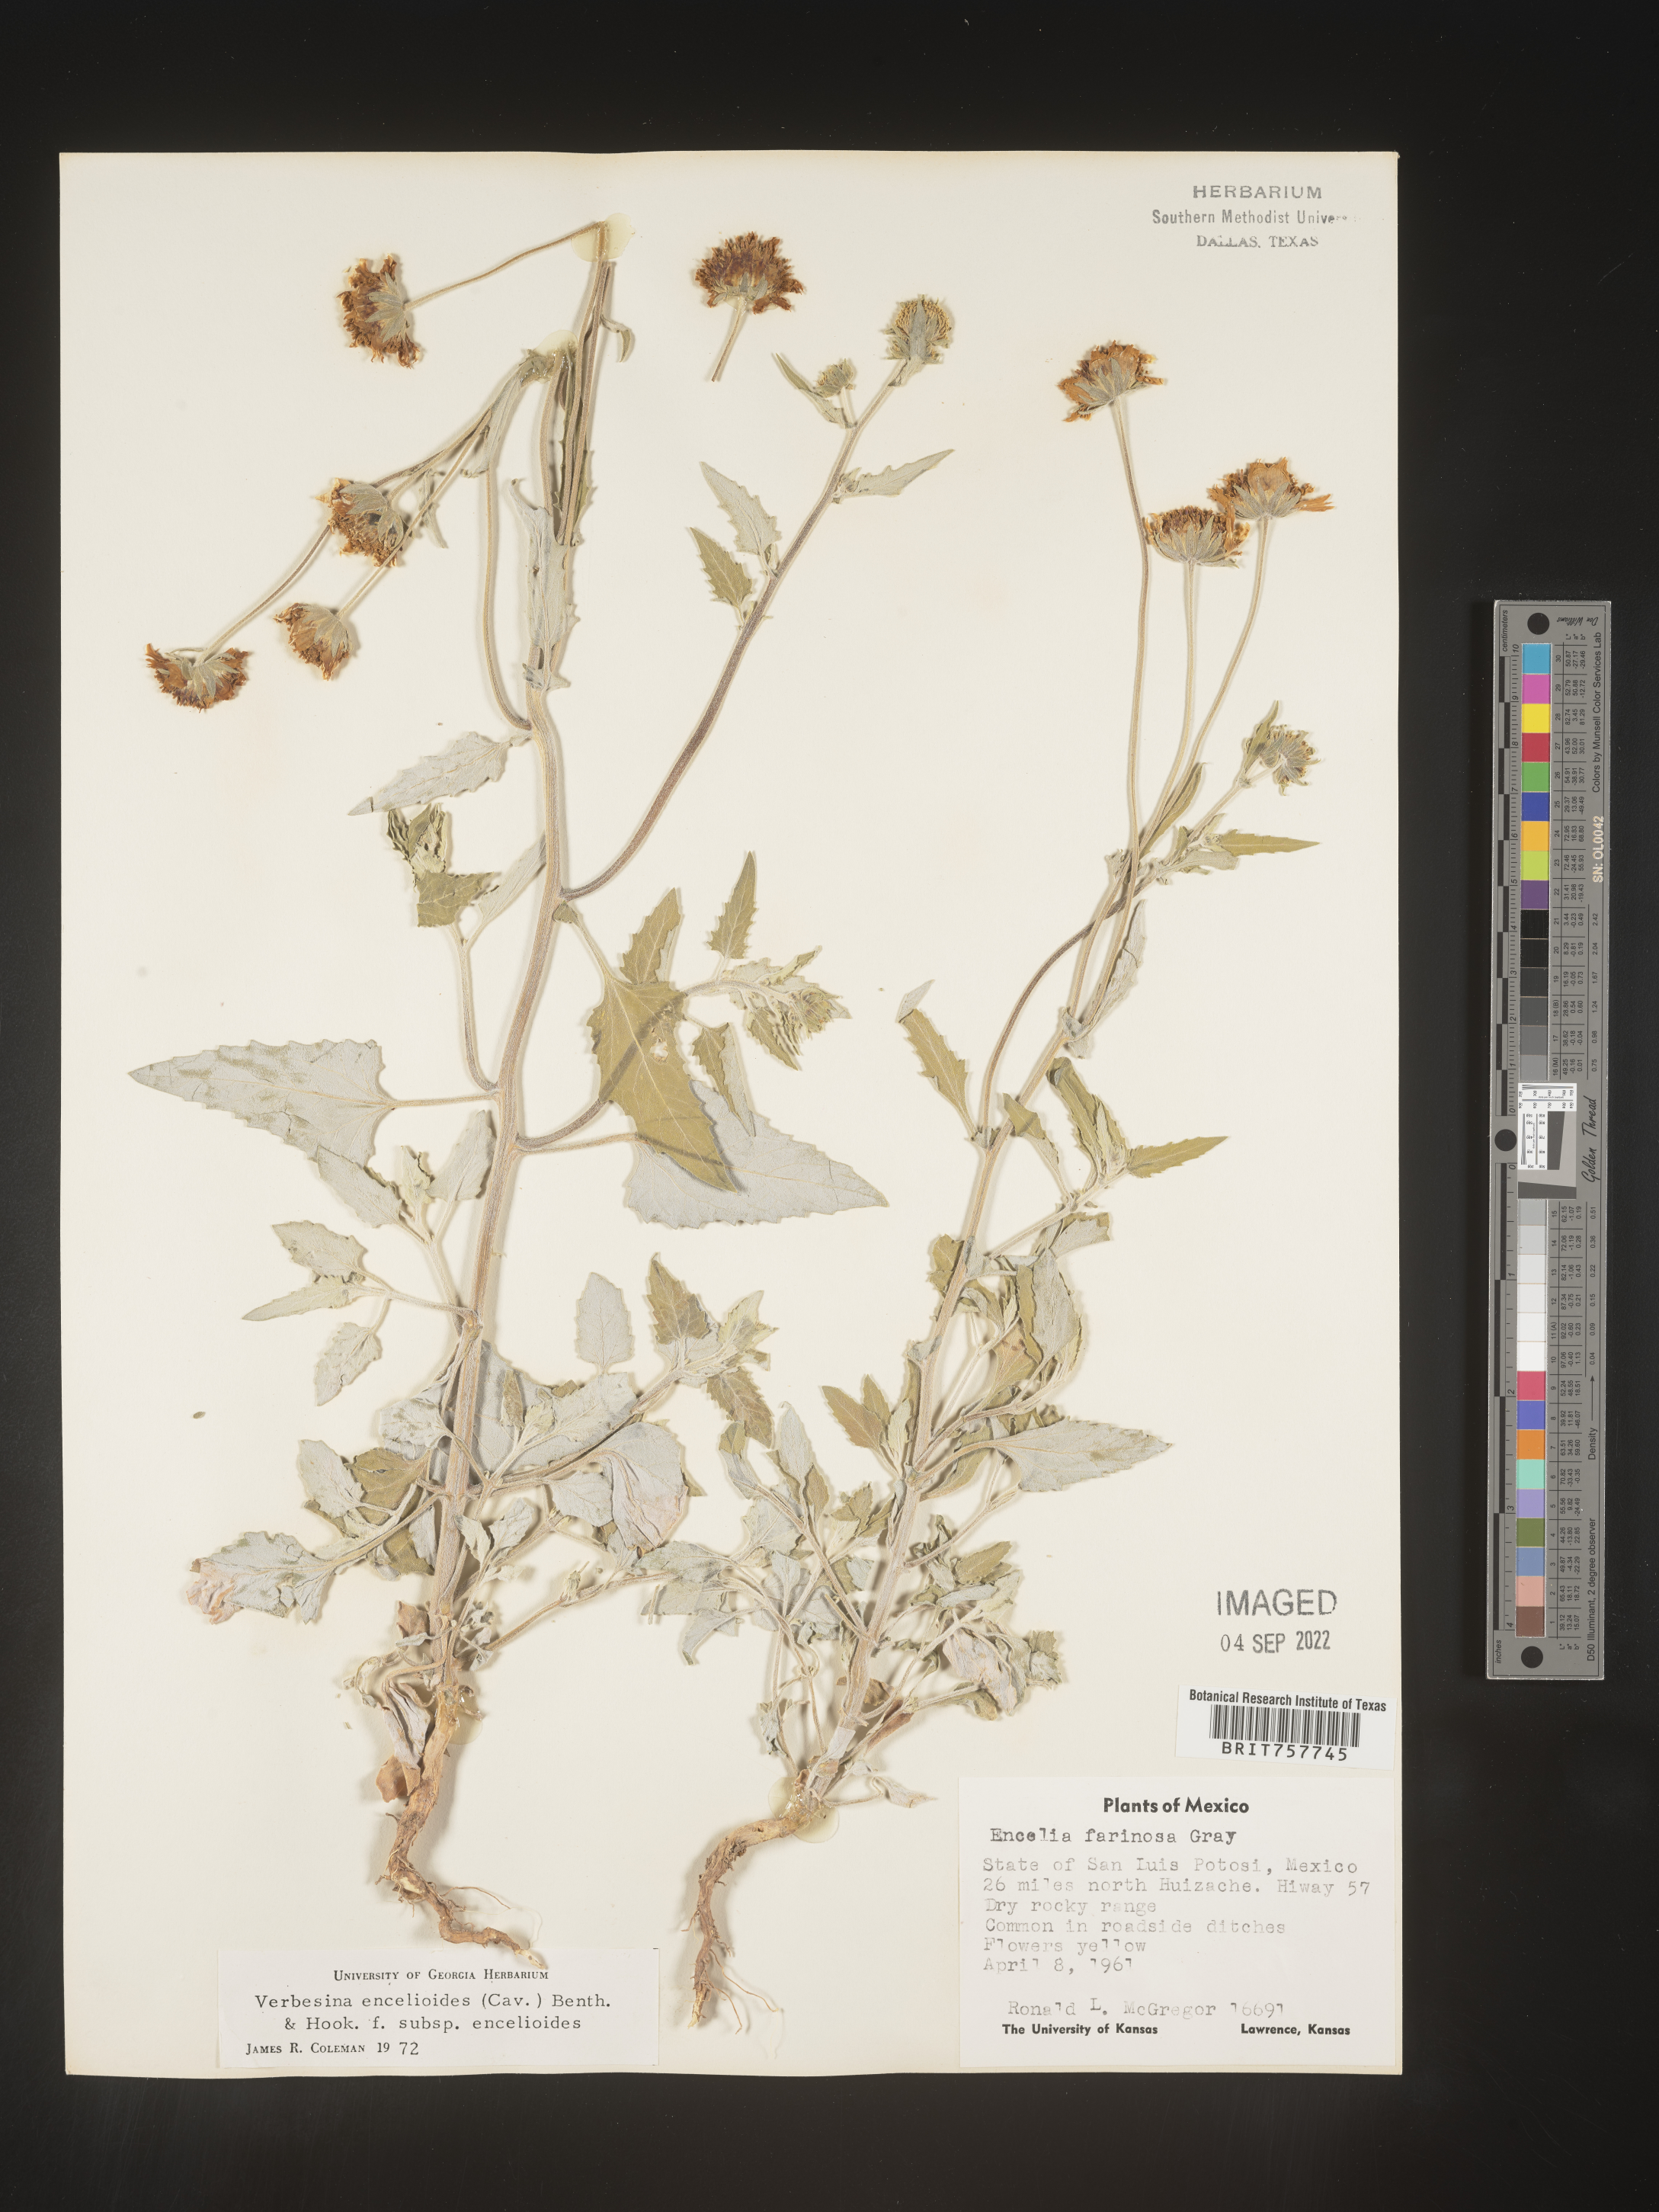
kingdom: Plantae
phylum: Tracheophyta
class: Magnoliopsida
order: Asterales
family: Asteraceae
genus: Verbesina
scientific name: Verbesina
